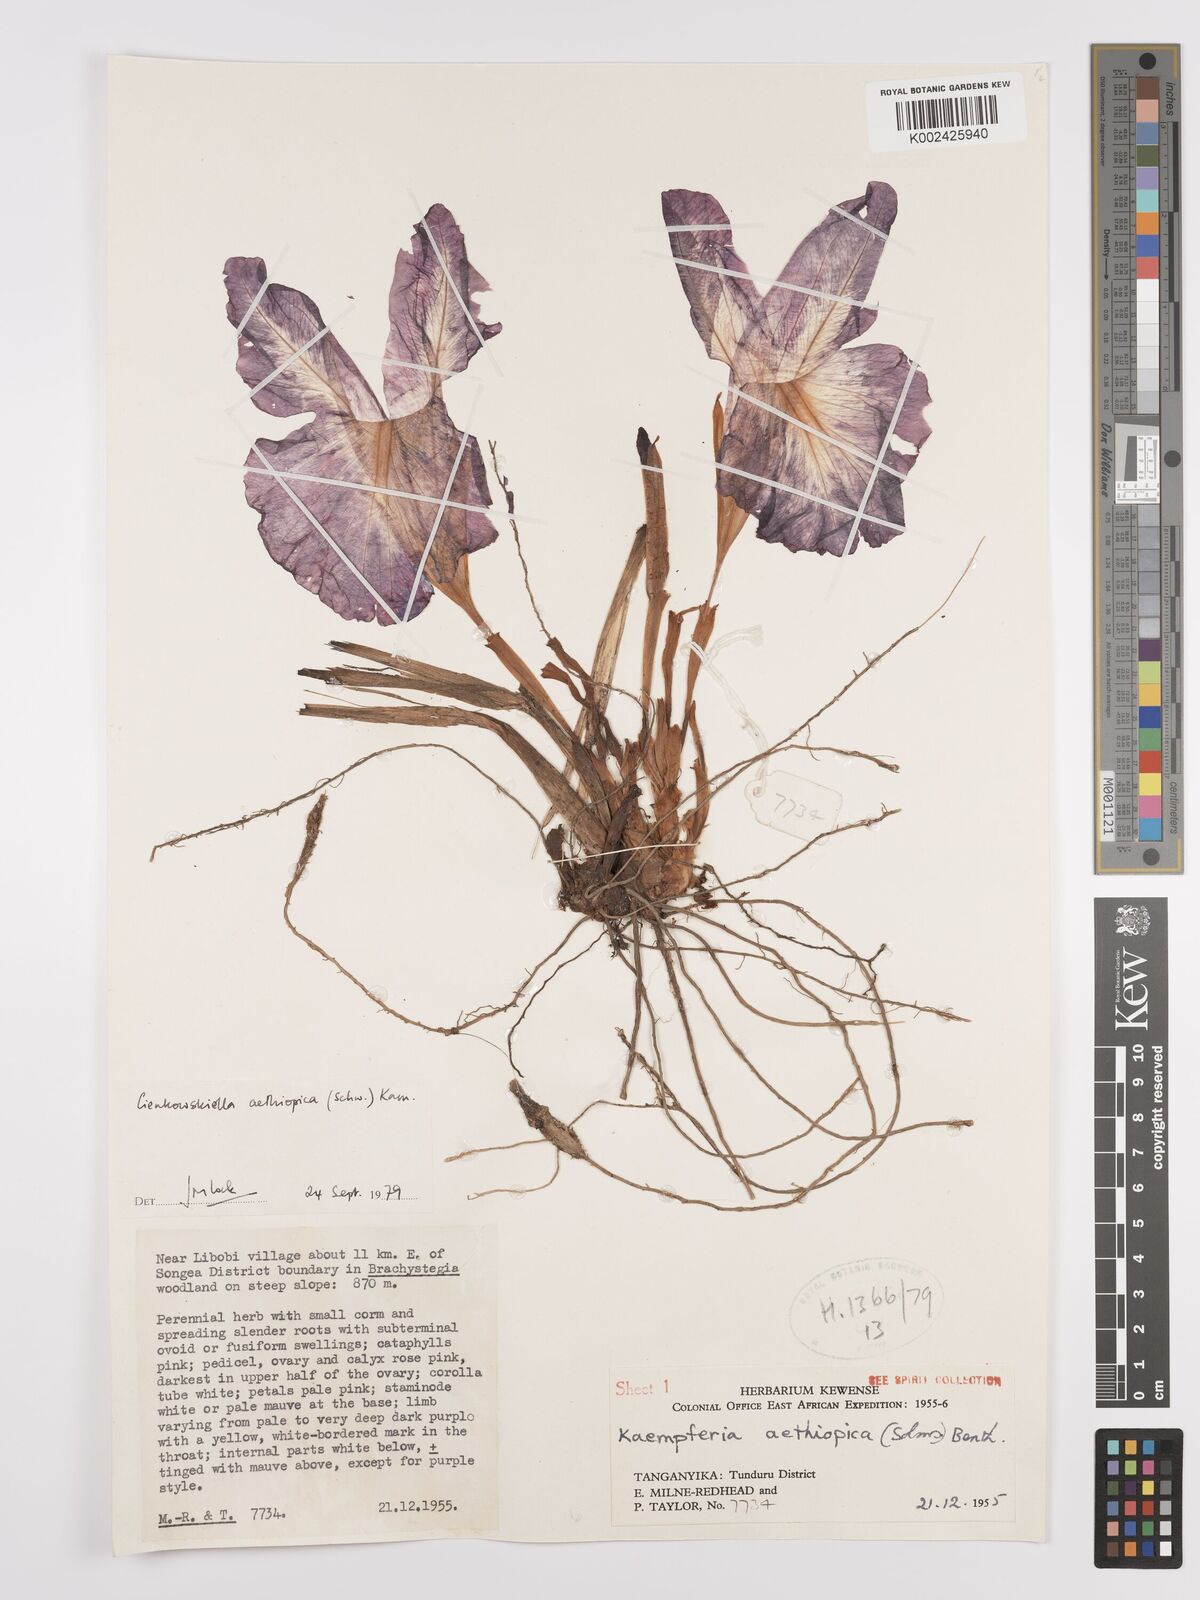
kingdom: Plantae
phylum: Tracheophyta
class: Liliopsida
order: Zingiberales
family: Zingiberaceae
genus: Siphonochilus
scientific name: Siphonochilus aethiopicus
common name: African-ginger
